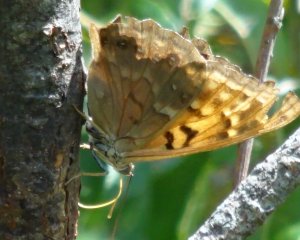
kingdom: Animalia
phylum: Arthropoda
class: Insecta
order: Lepidoptera
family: Nymphalidae
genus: Asterocampa
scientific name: Asterocampa clyton
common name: Tawny Emperor
